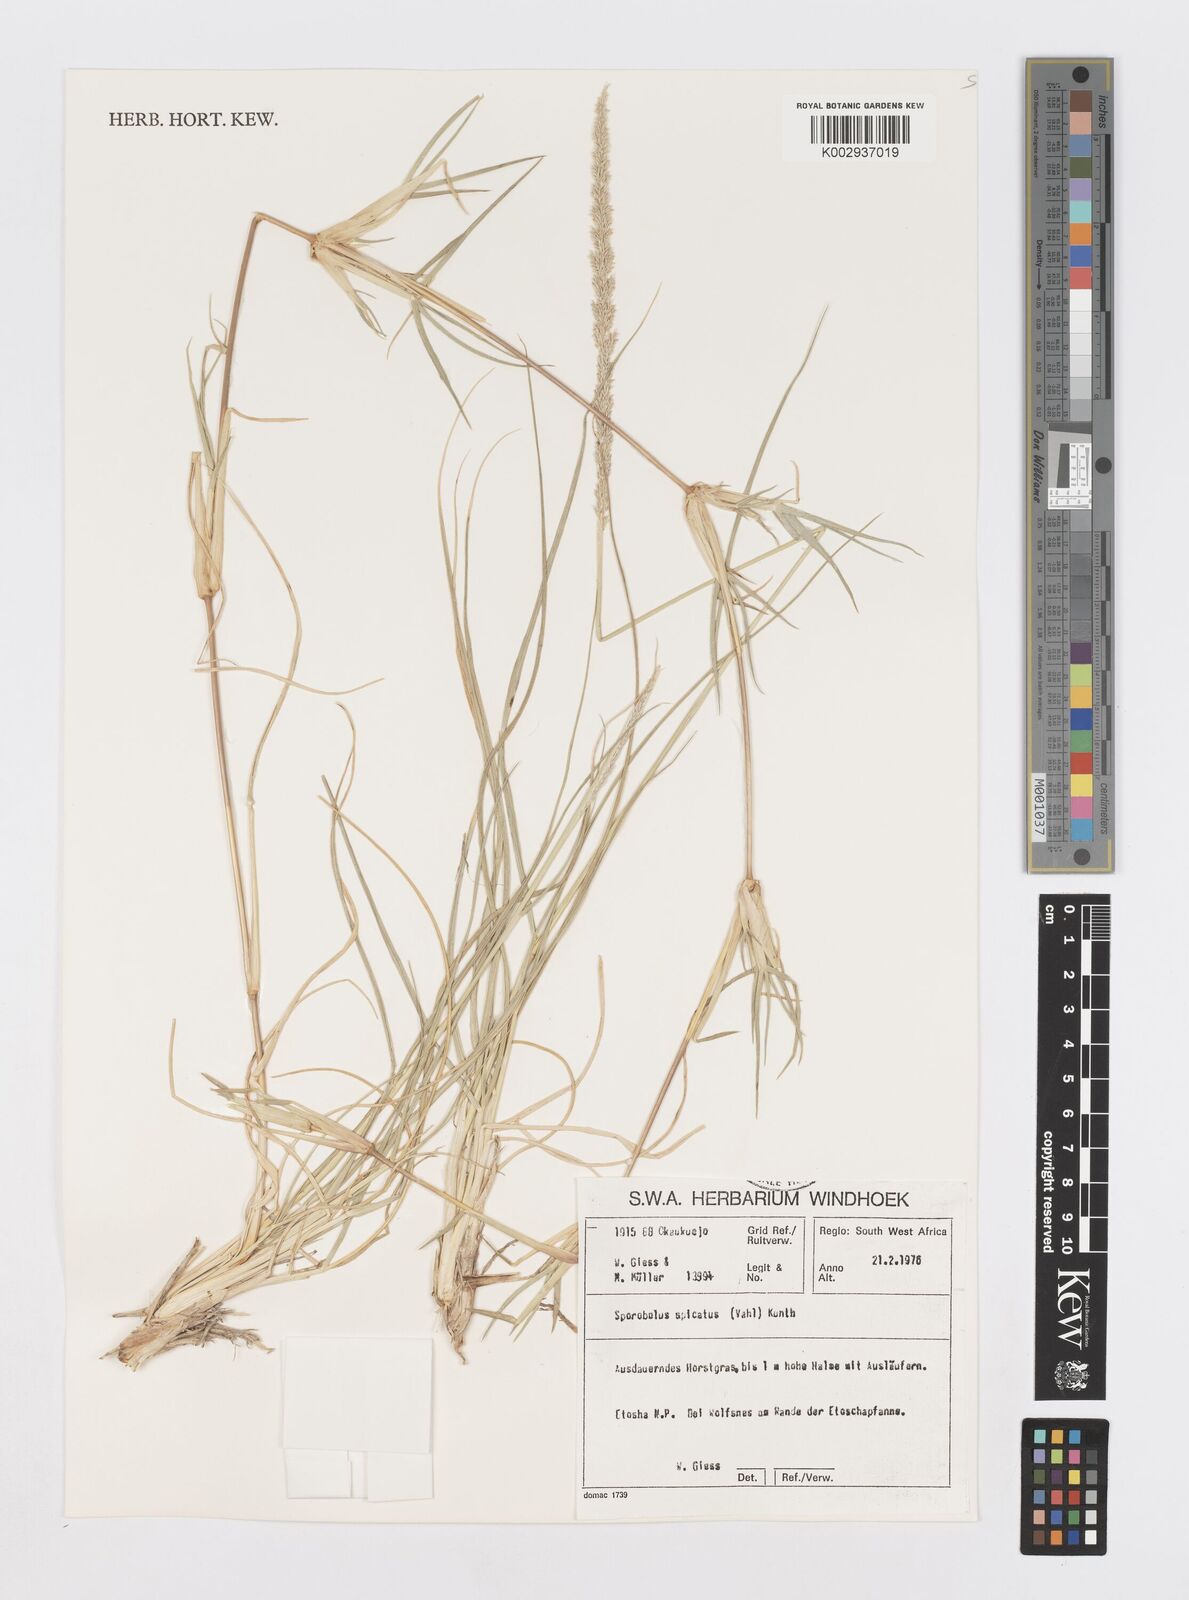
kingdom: Plantae
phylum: Tracheophyta
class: Liliopsida
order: Poales
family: Poaceae
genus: Sporobolus
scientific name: Sporobolus spicatus
